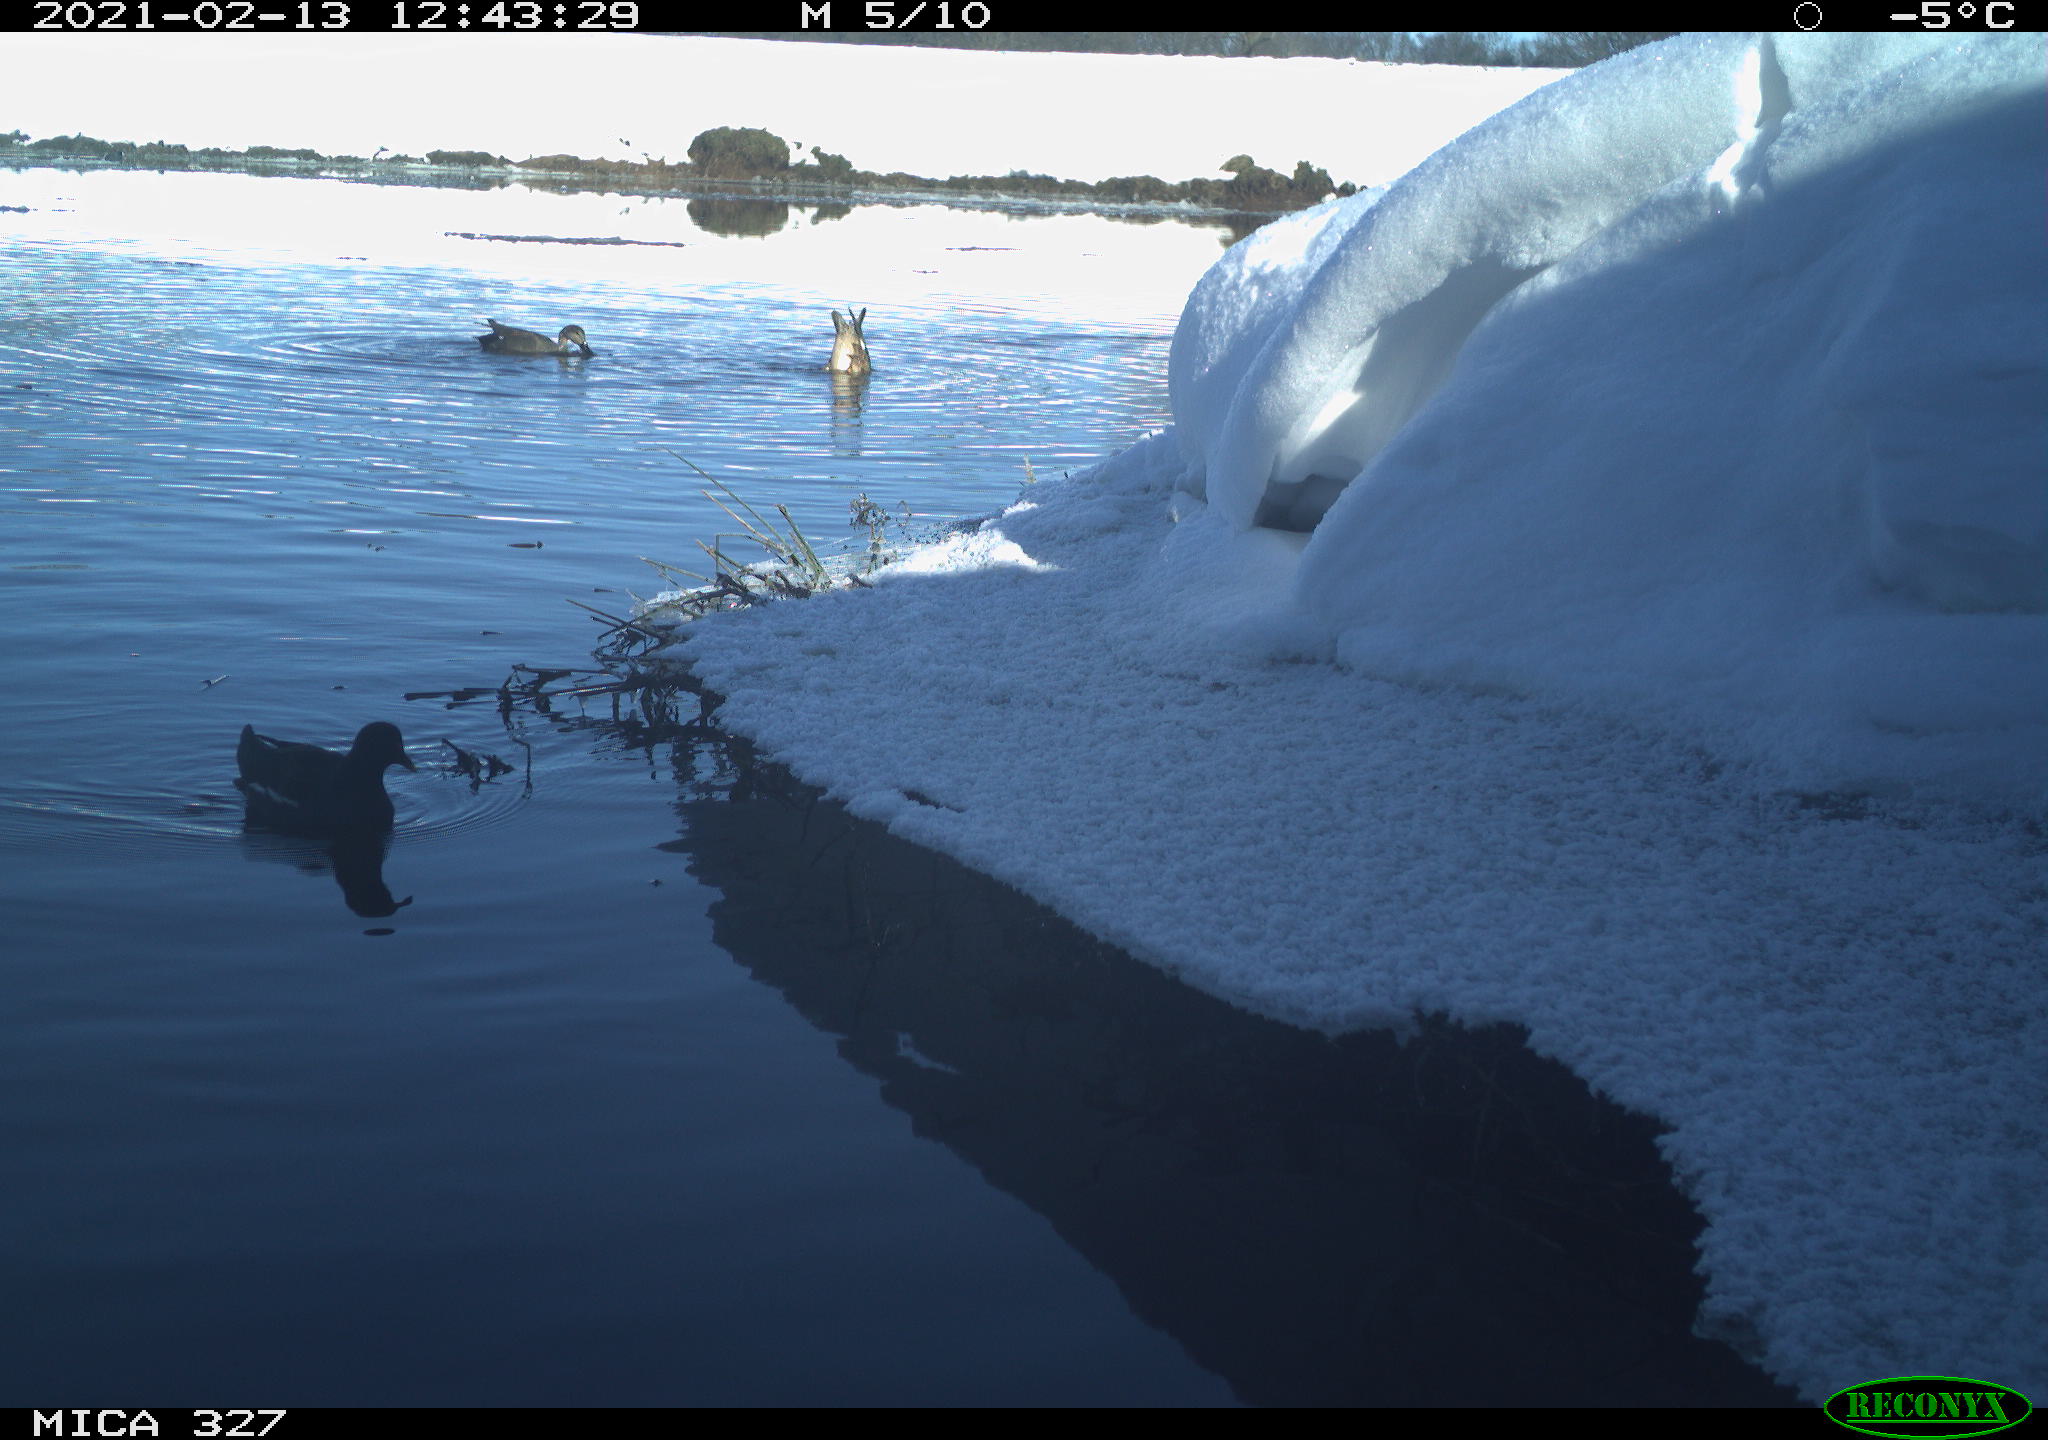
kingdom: Animalia
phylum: Chordata
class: Aves
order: Anseriformes
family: Anatidae
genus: Anas
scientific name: Anas
